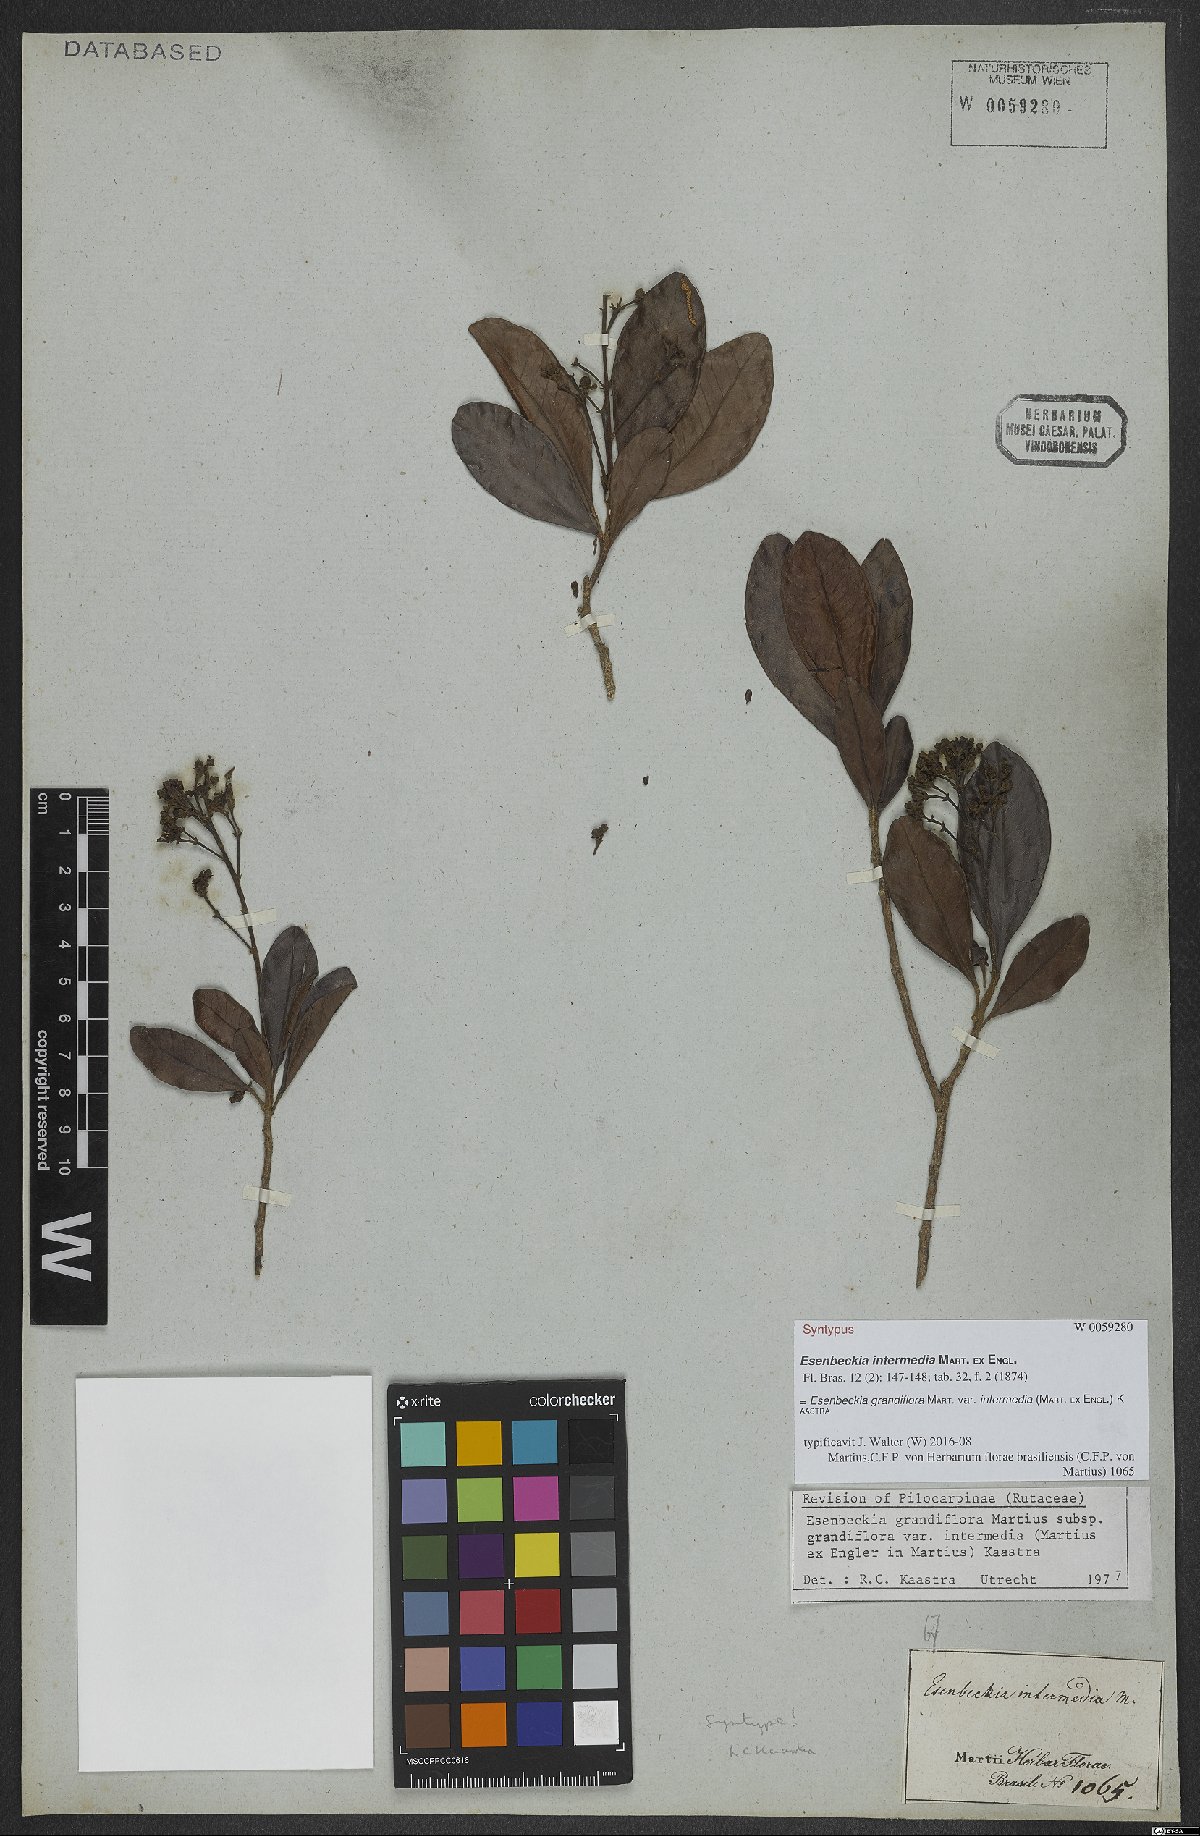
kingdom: Plantae
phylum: Tracheophyta
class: Magnoliopsida
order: Sapindales
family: Rutaceae
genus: Esenbeckia
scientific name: Esenbeckia grandiflora
